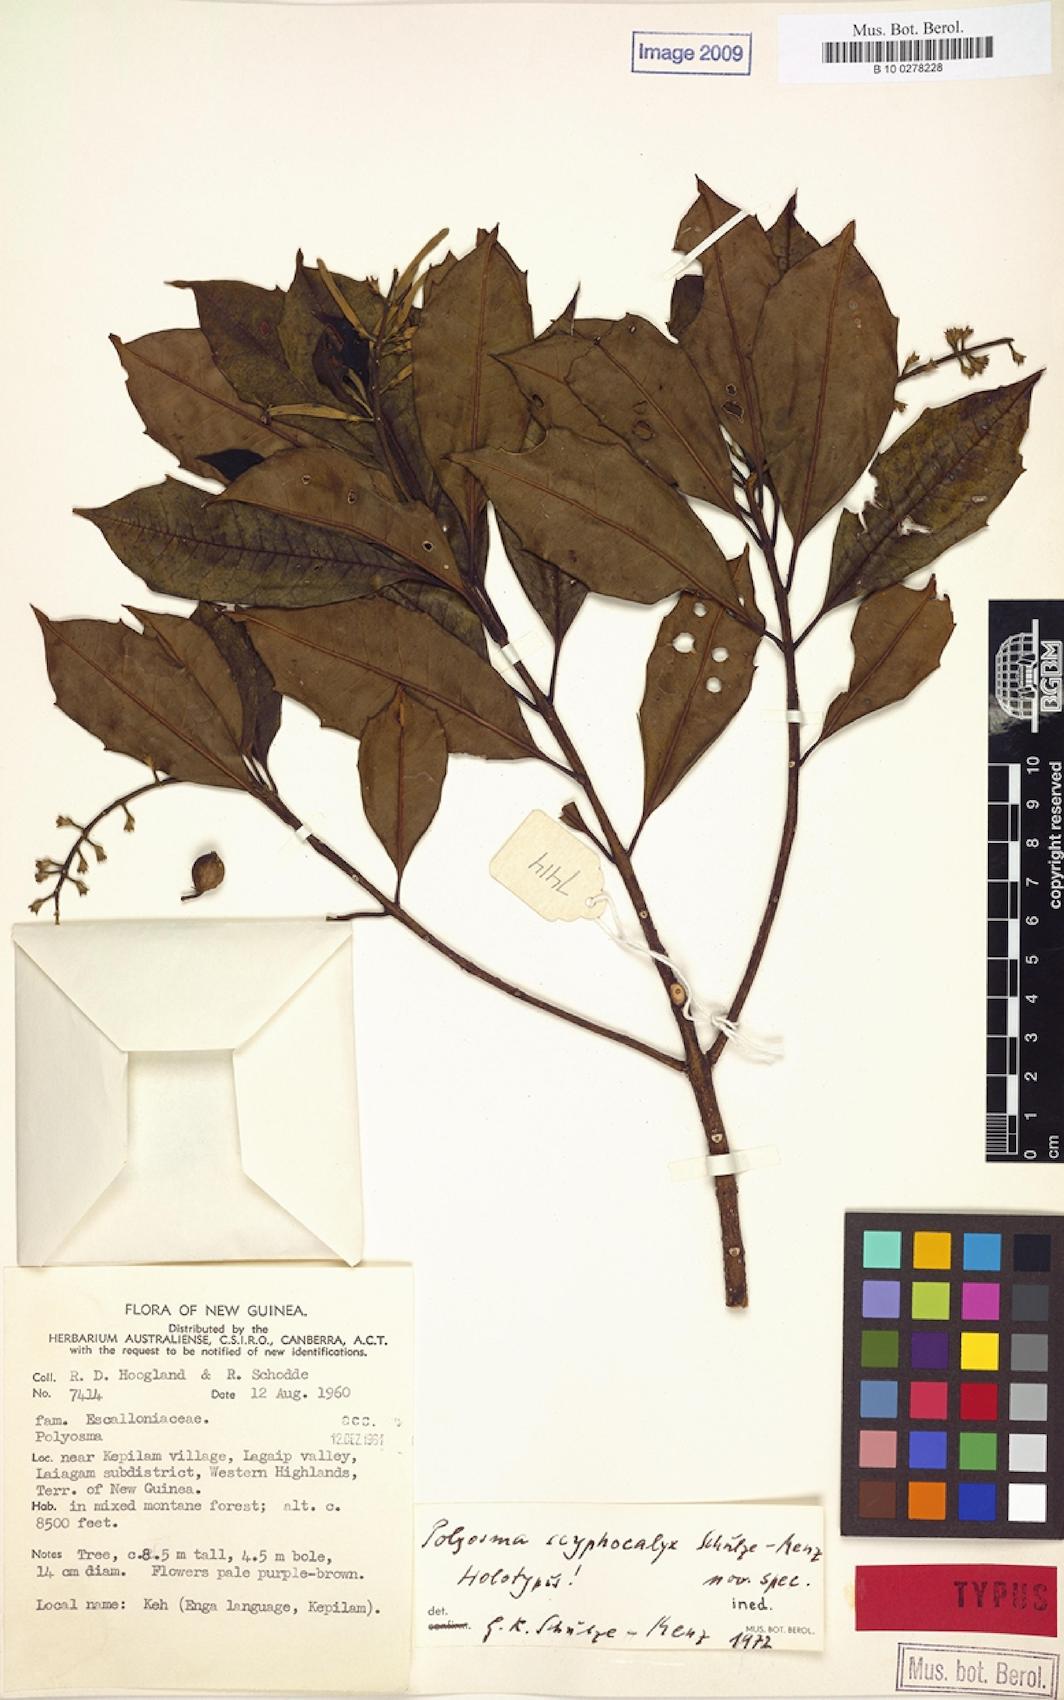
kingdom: Plantae
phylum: Tracheophyta
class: Magnoliopsida
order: Escalloniales
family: Escalloniaceae
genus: Polyosma
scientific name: Polyosma
